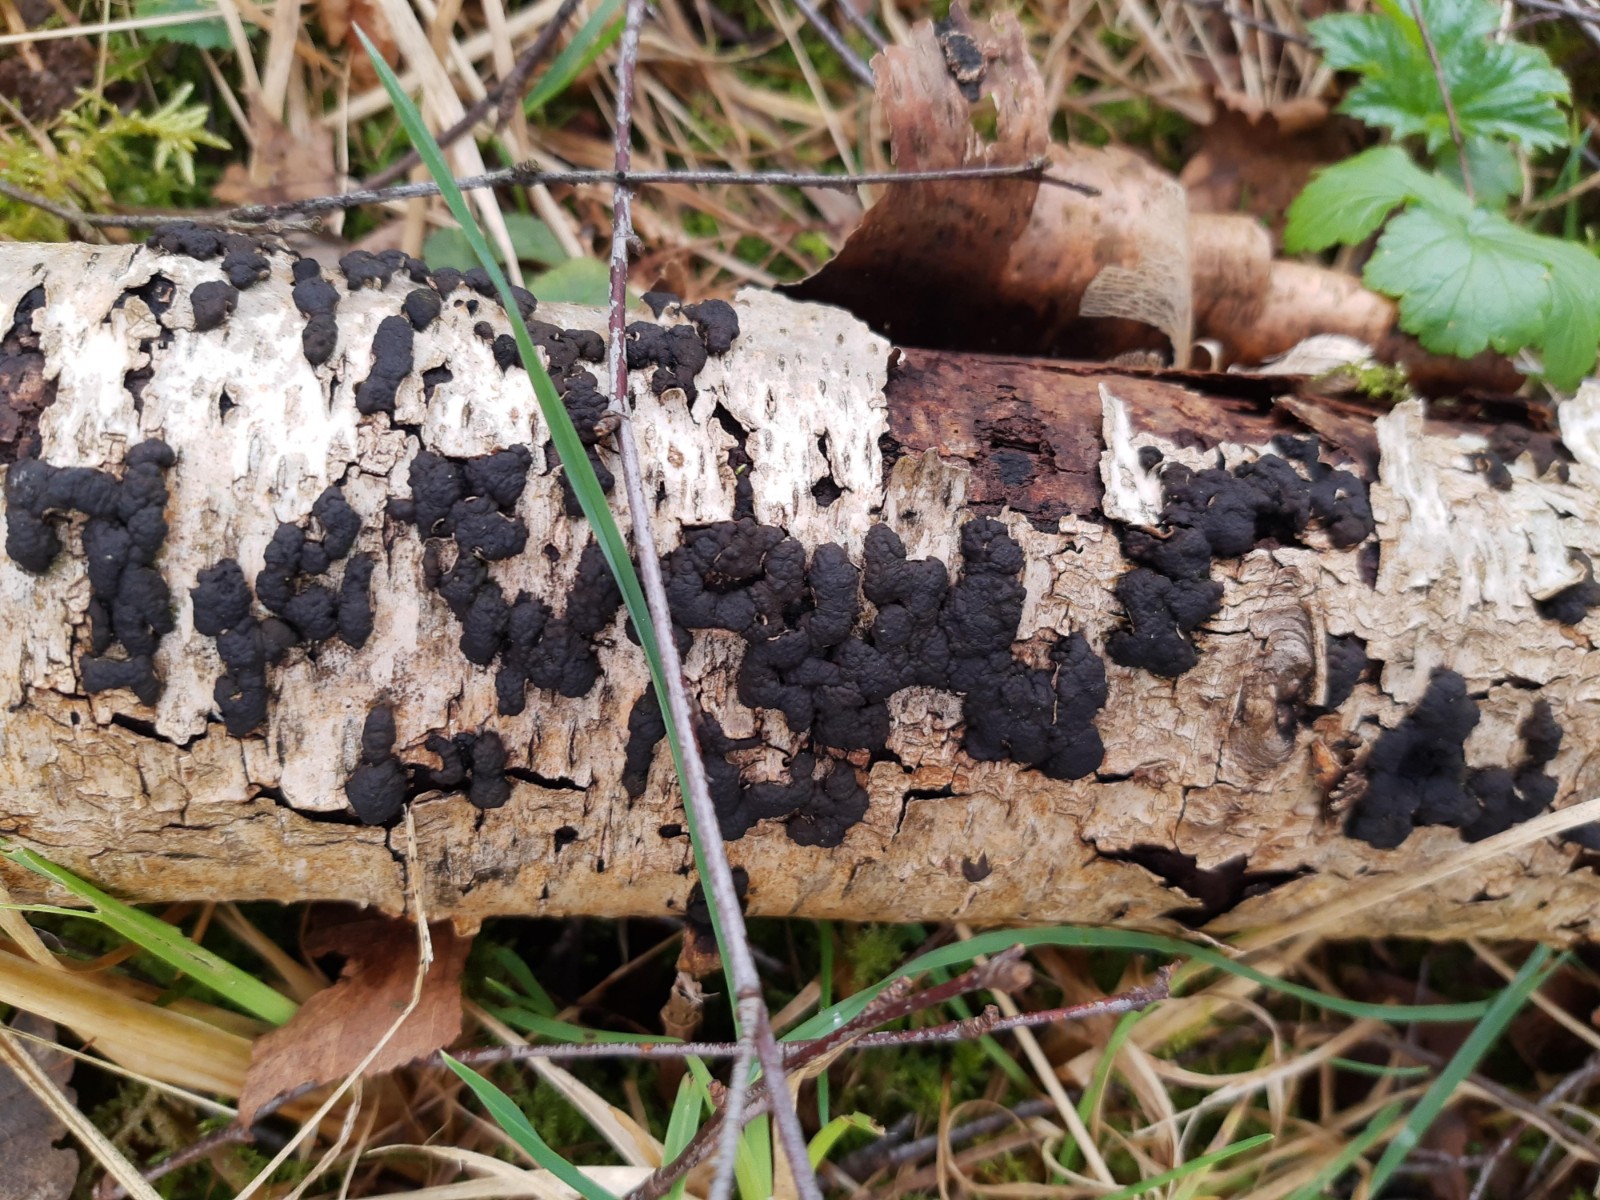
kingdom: Fungi
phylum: Ascomycota
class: Sordariomycetes
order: Xylariales
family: Hypoxylaceae
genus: Jackrogersella
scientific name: Jackrogersella multiformis
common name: foranderlig kulbær
